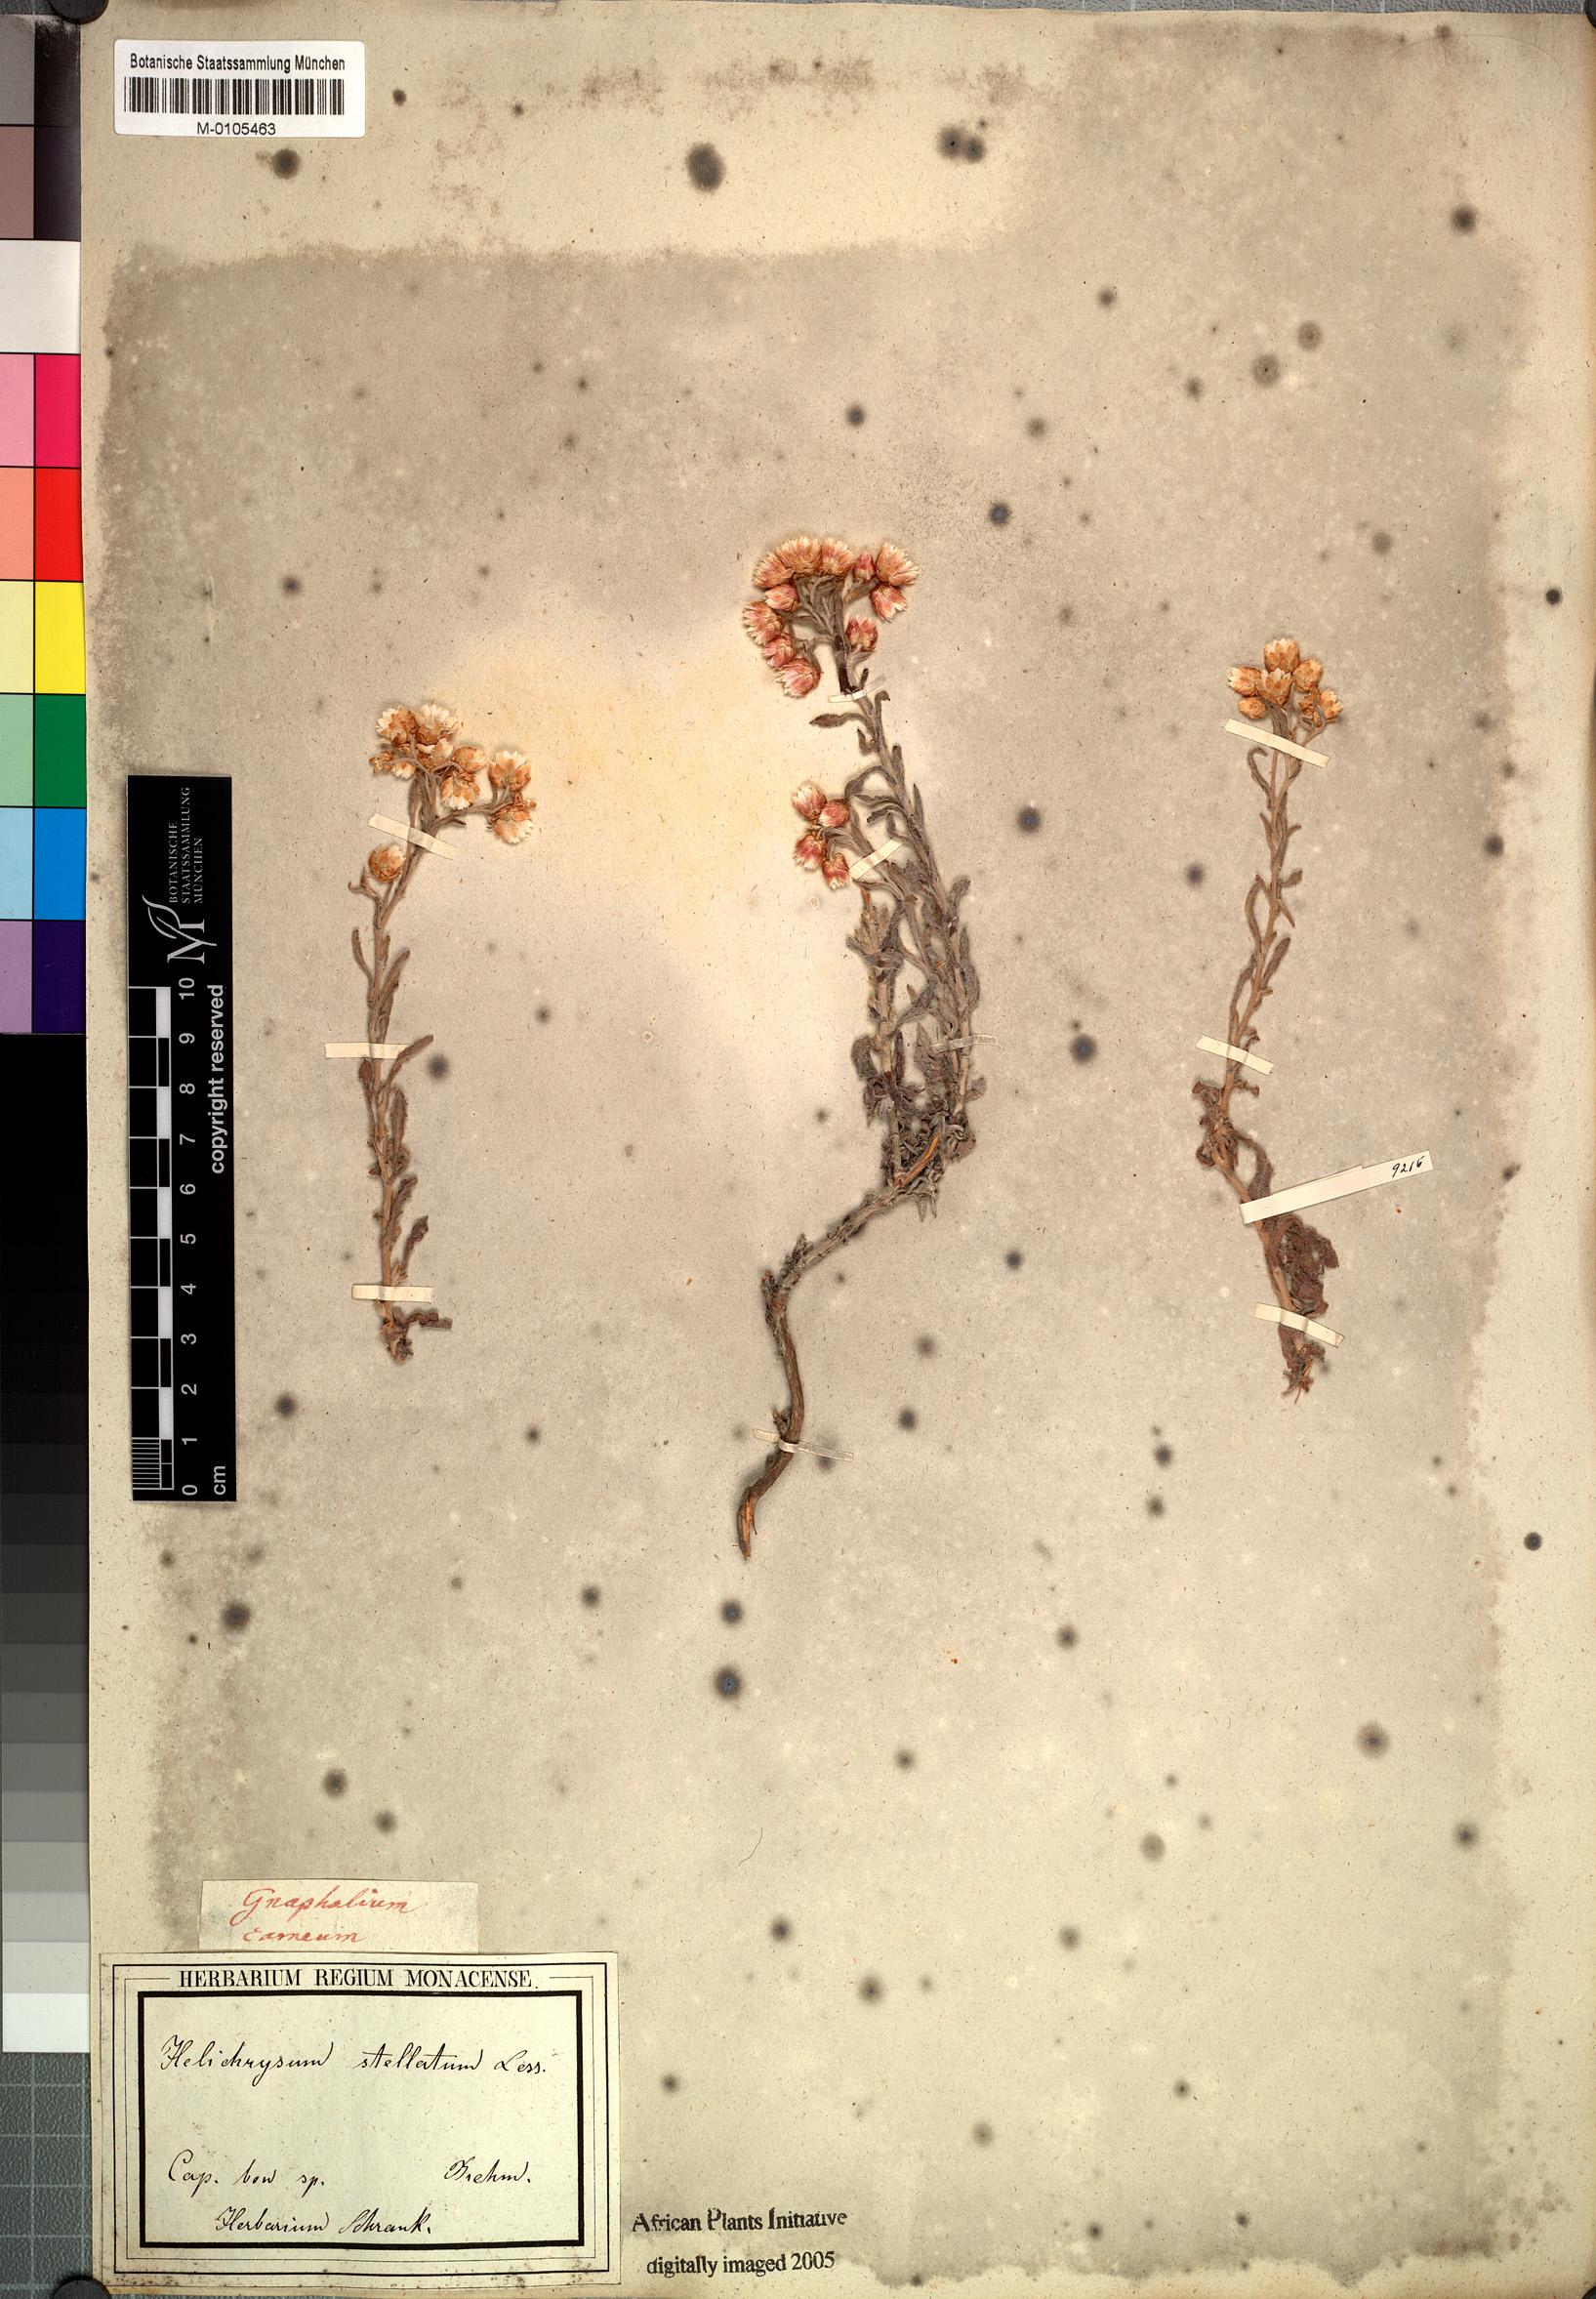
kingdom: Plantae
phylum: Tracheophyta
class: Magnoliopsida
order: Asterales
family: Asteraceae
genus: Helichrysum
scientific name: Helichrysum stellatum
